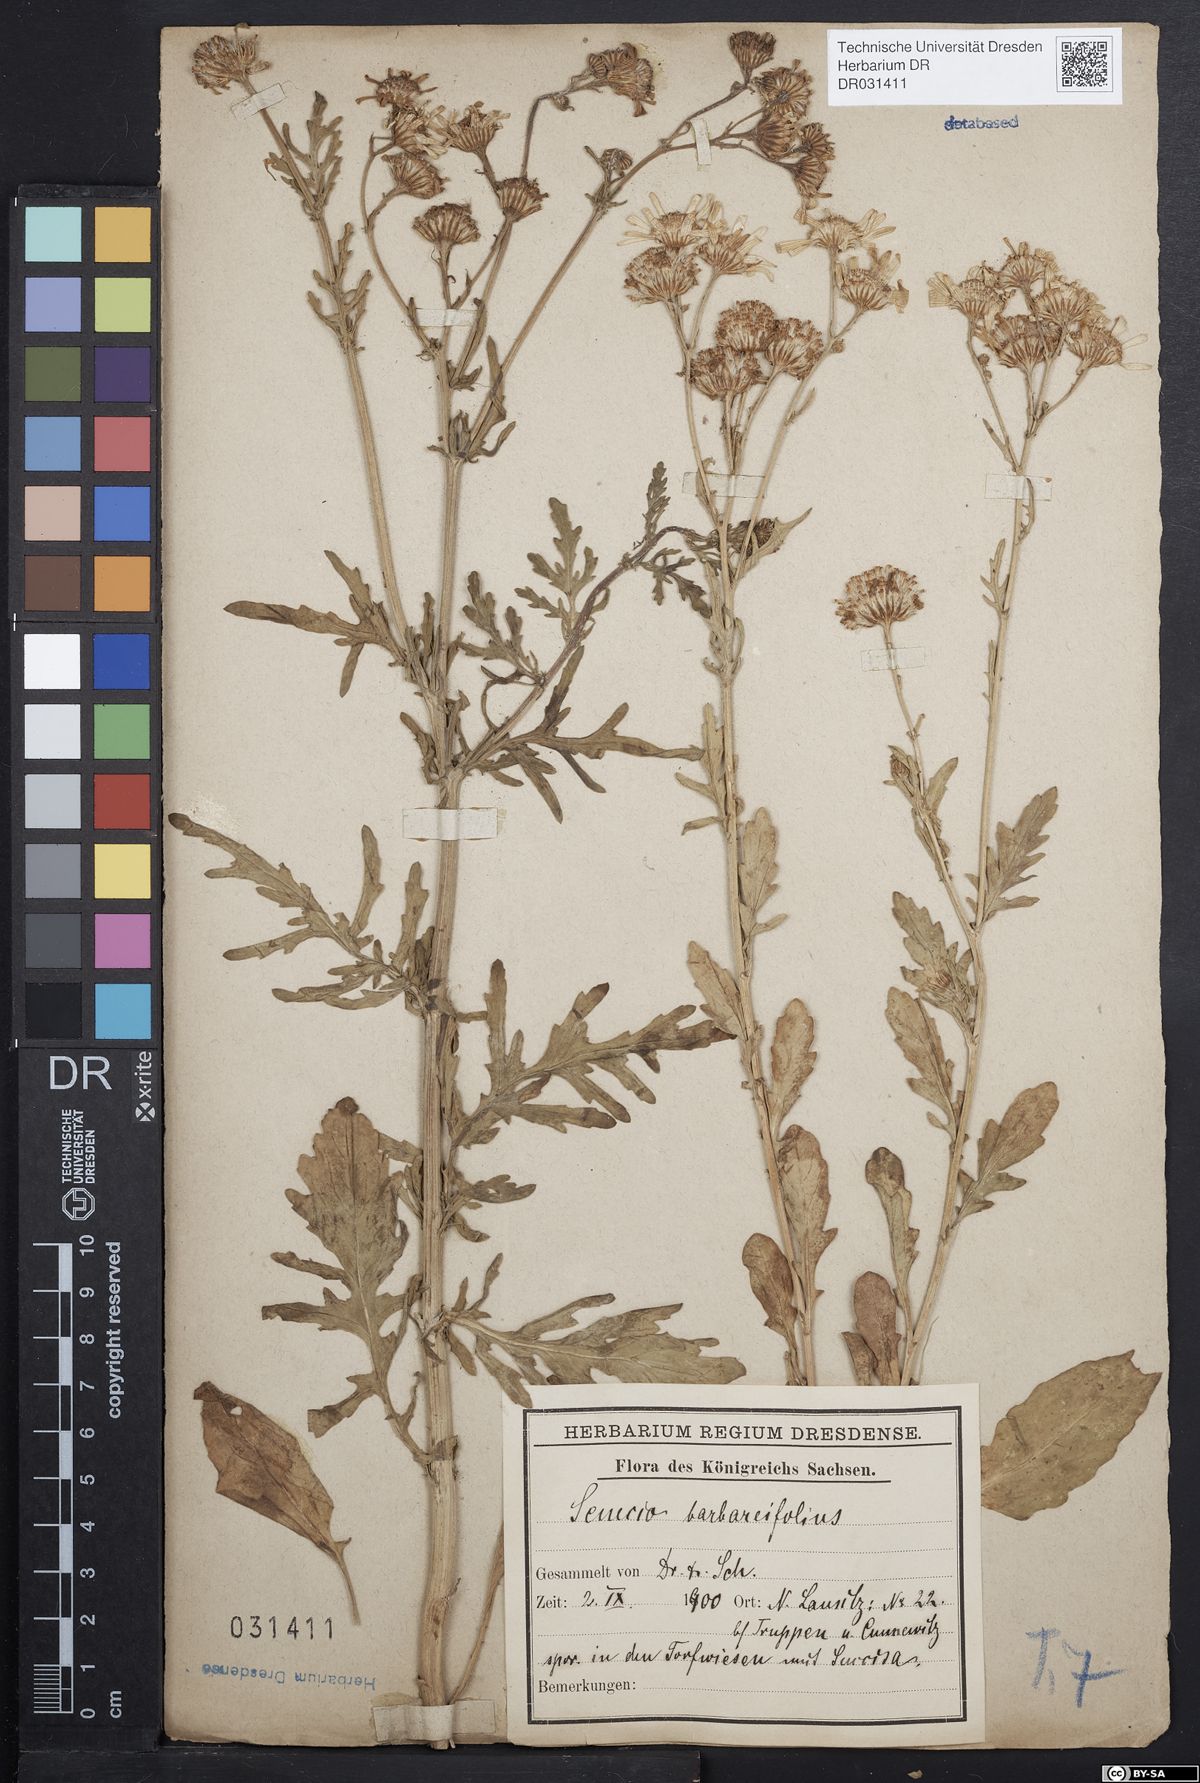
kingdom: Plantae
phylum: Tracheophyta
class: Magnoliopsida
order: Asterales
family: Asteraceae
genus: Jacobaea
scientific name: Jacobaea aquatica
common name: Water ragwort
